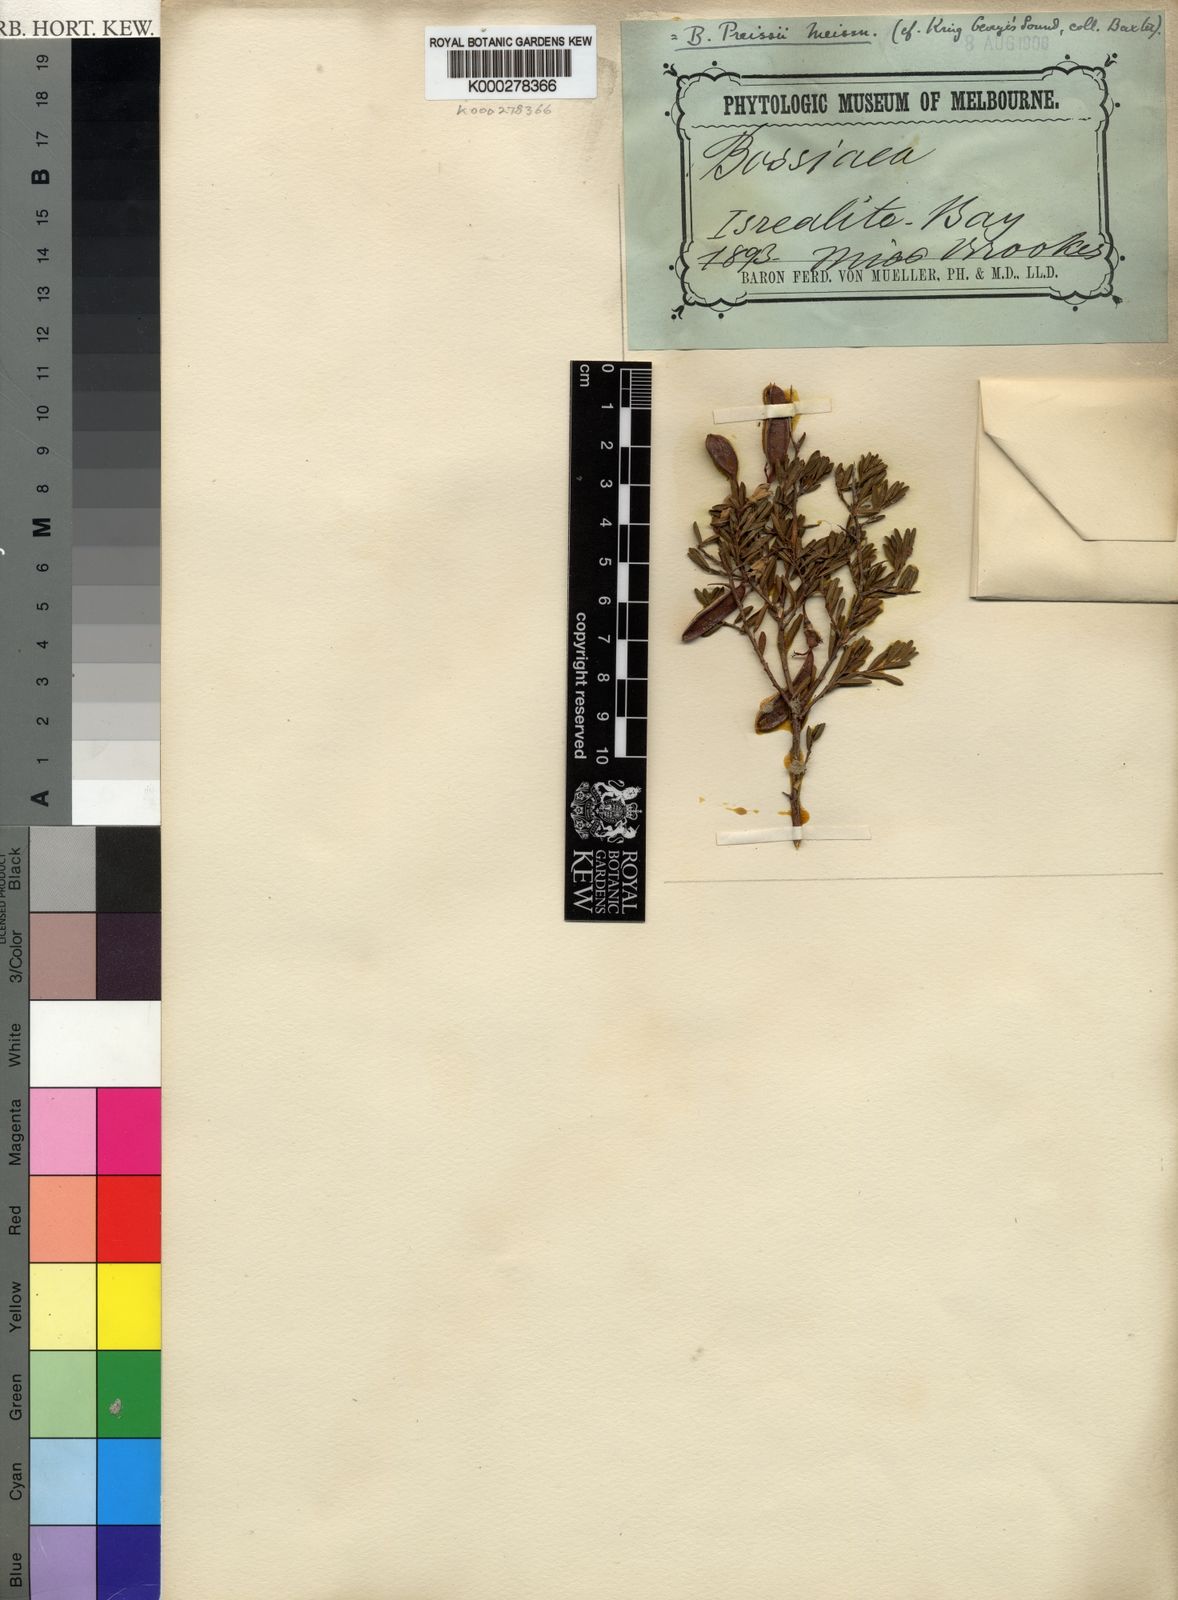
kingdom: Plantae
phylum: Tracheophyta
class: Magnoliopsida
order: Fabales
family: Fabaceae
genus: Bossiaea
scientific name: Bossiaea preissii
